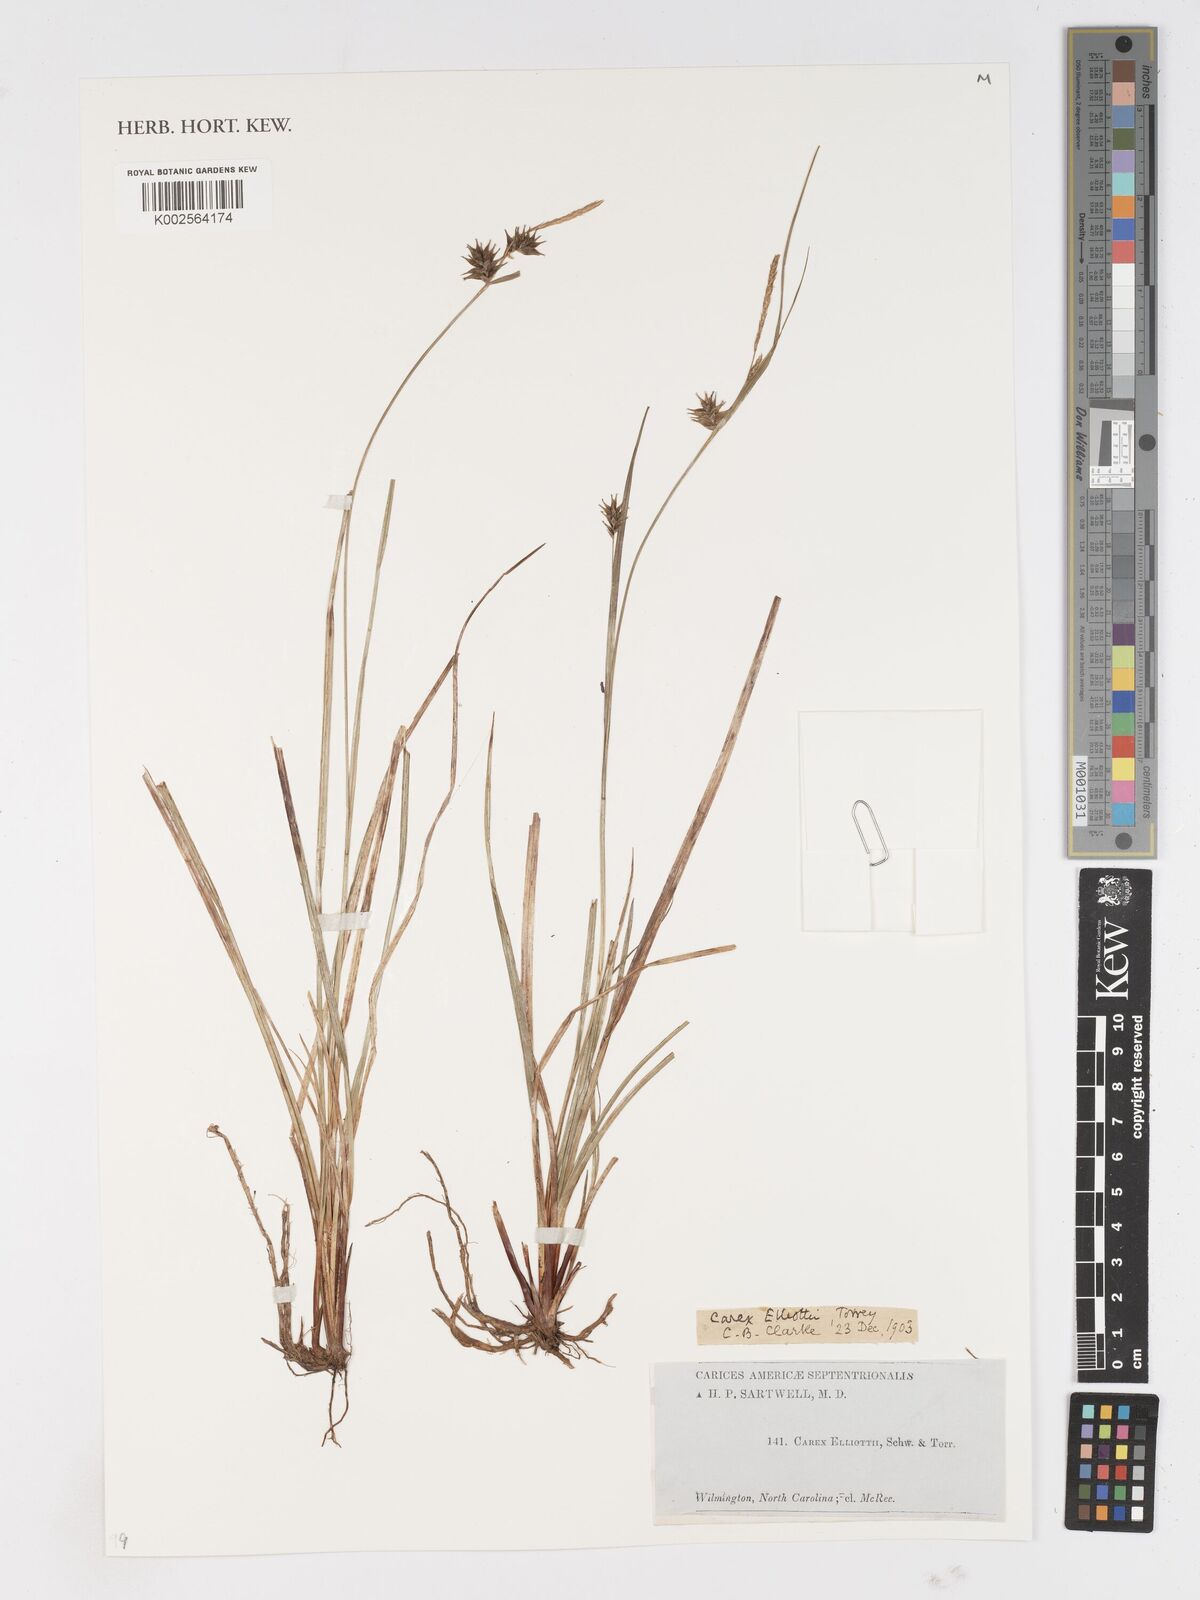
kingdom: Plantae
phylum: Tracheophyta
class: Liliopsida
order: Poales
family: Cyperaceae
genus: Carex
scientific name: Carex elliottii
